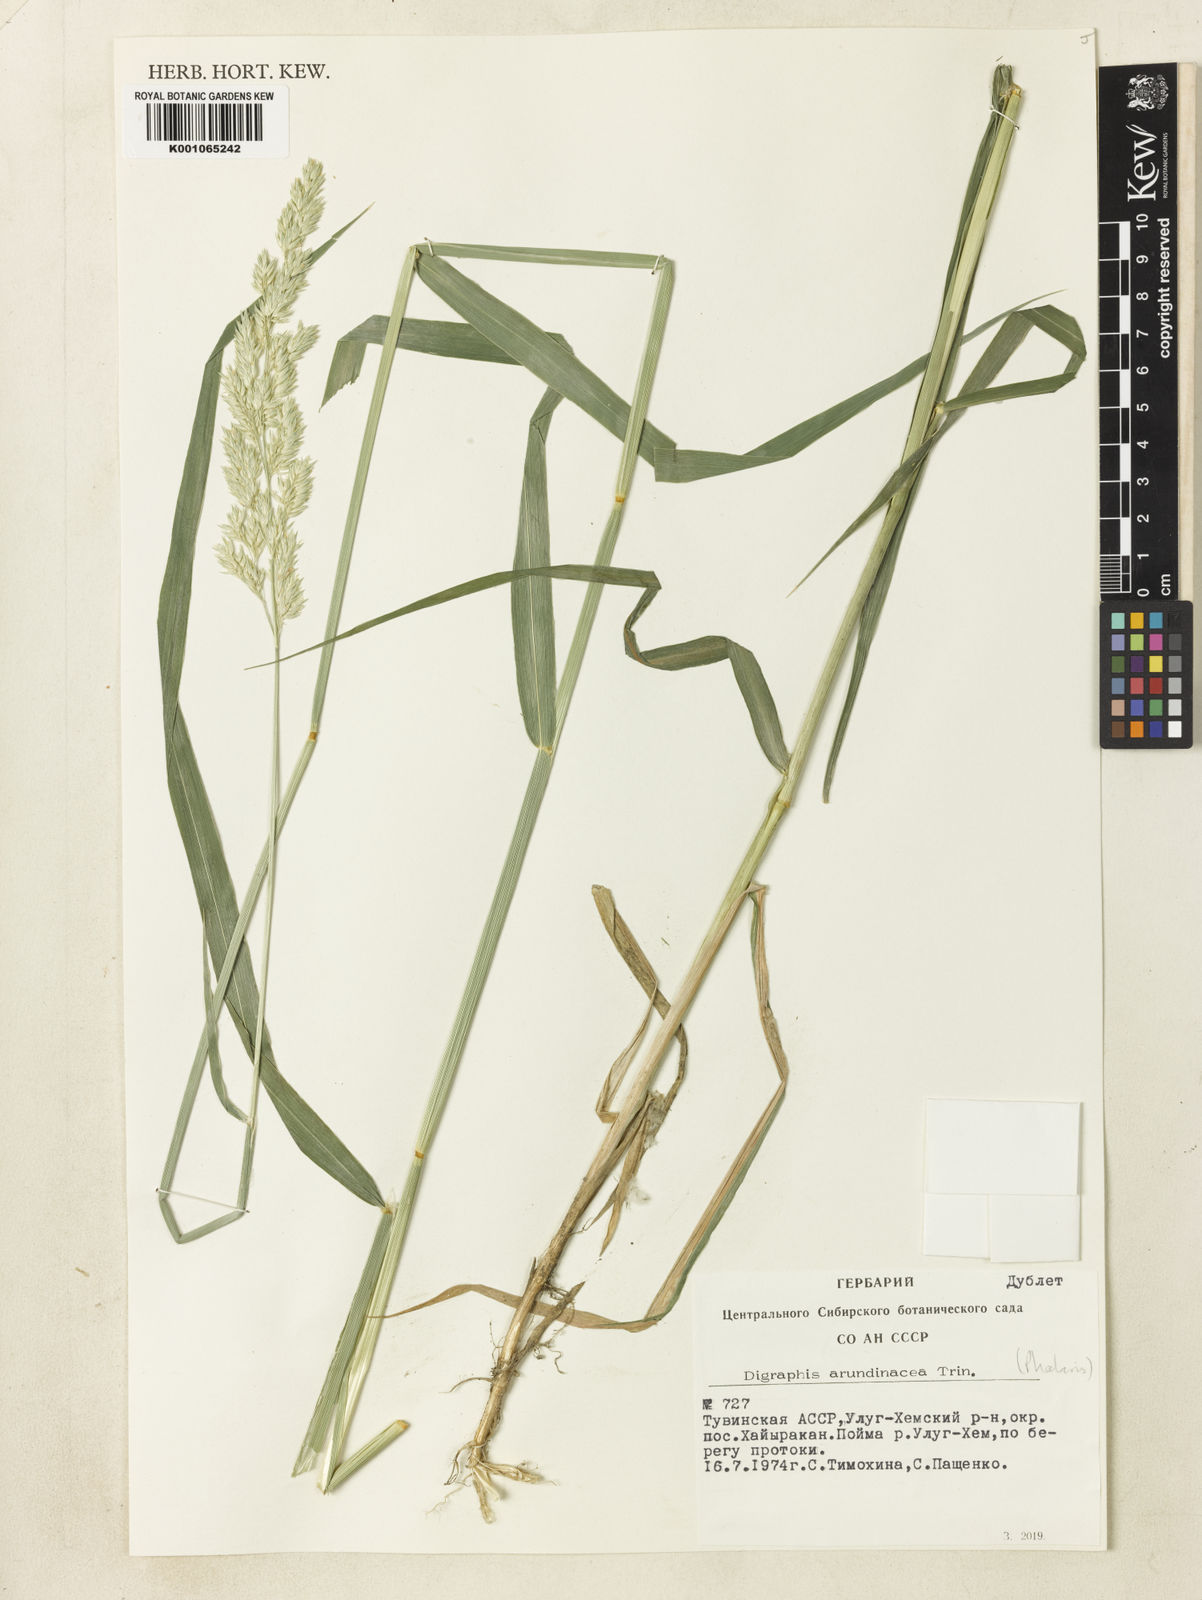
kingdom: Plantae
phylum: Tracheophyta
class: Liliopsida
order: Poales
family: Poaceae
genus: Phalaris
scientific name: Phalaris arundinacea
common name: Reed canary-grass
